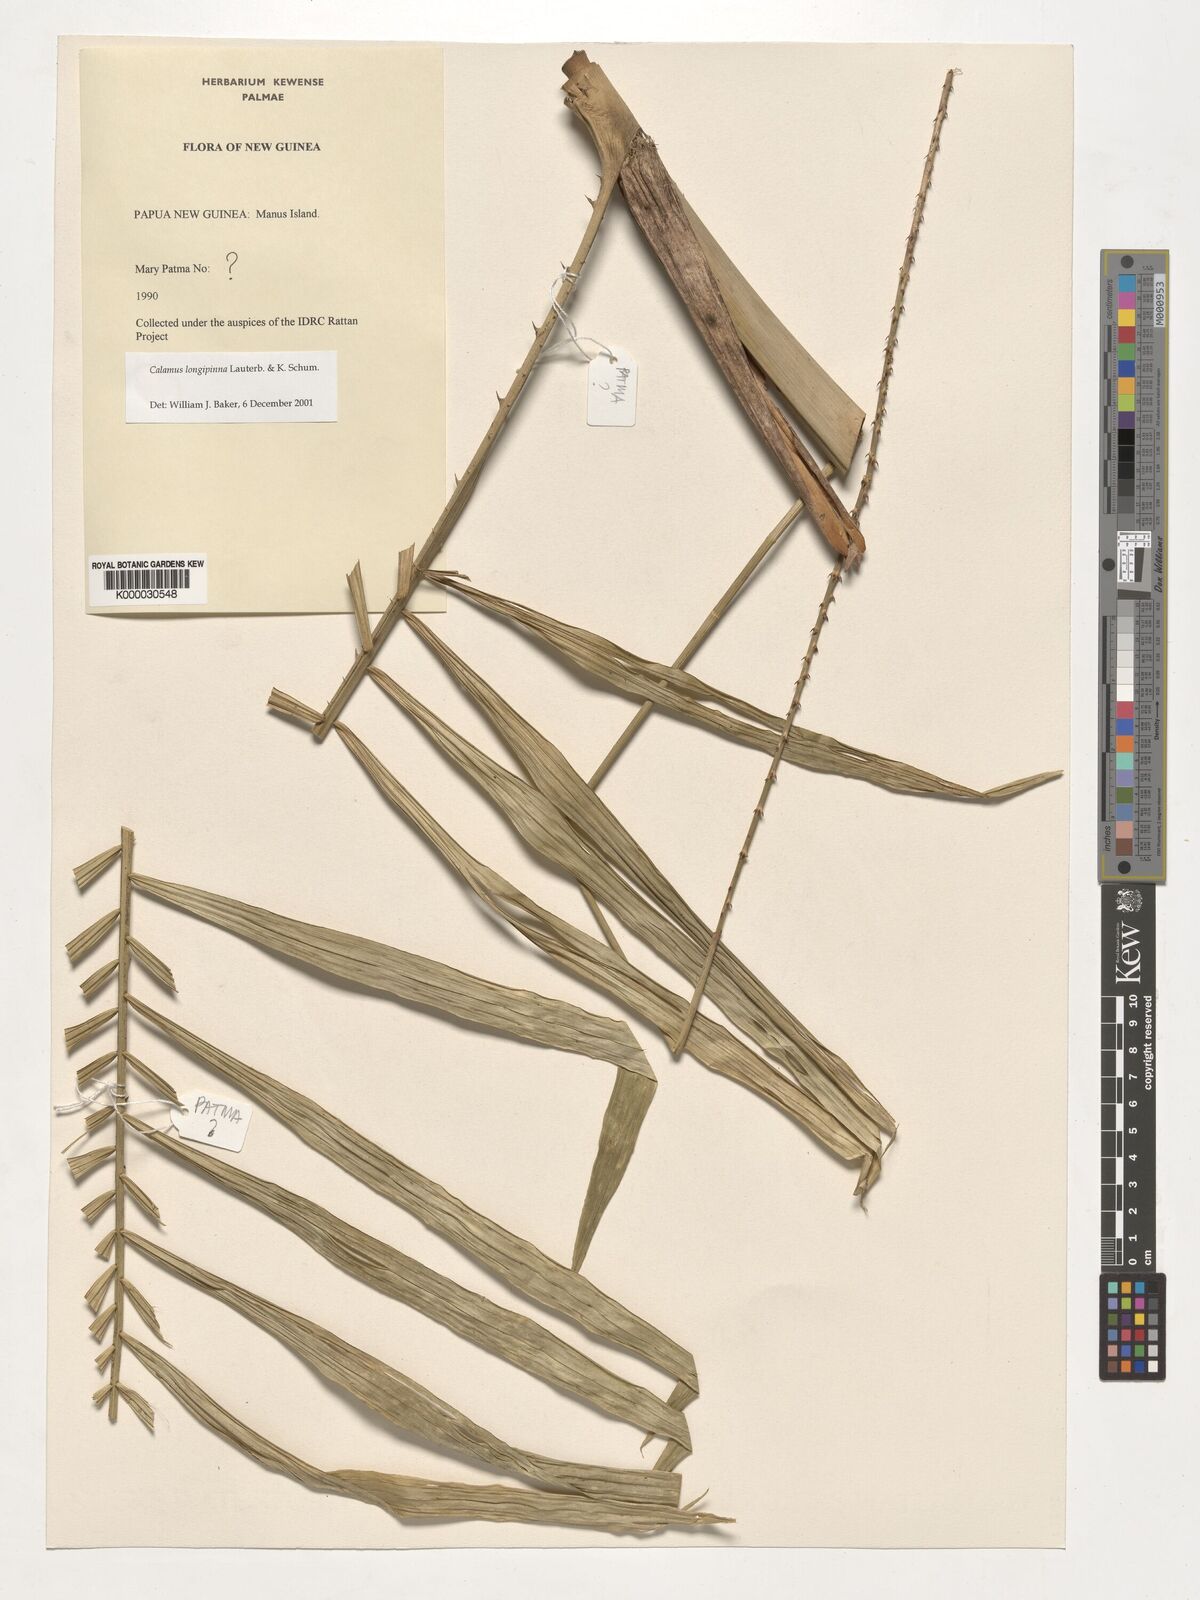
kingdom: Plantae
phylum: Tracheophyta
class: Liliopsida
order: Arecales
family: Arecaceae
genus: Calamus
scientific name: Calamus longipinna
